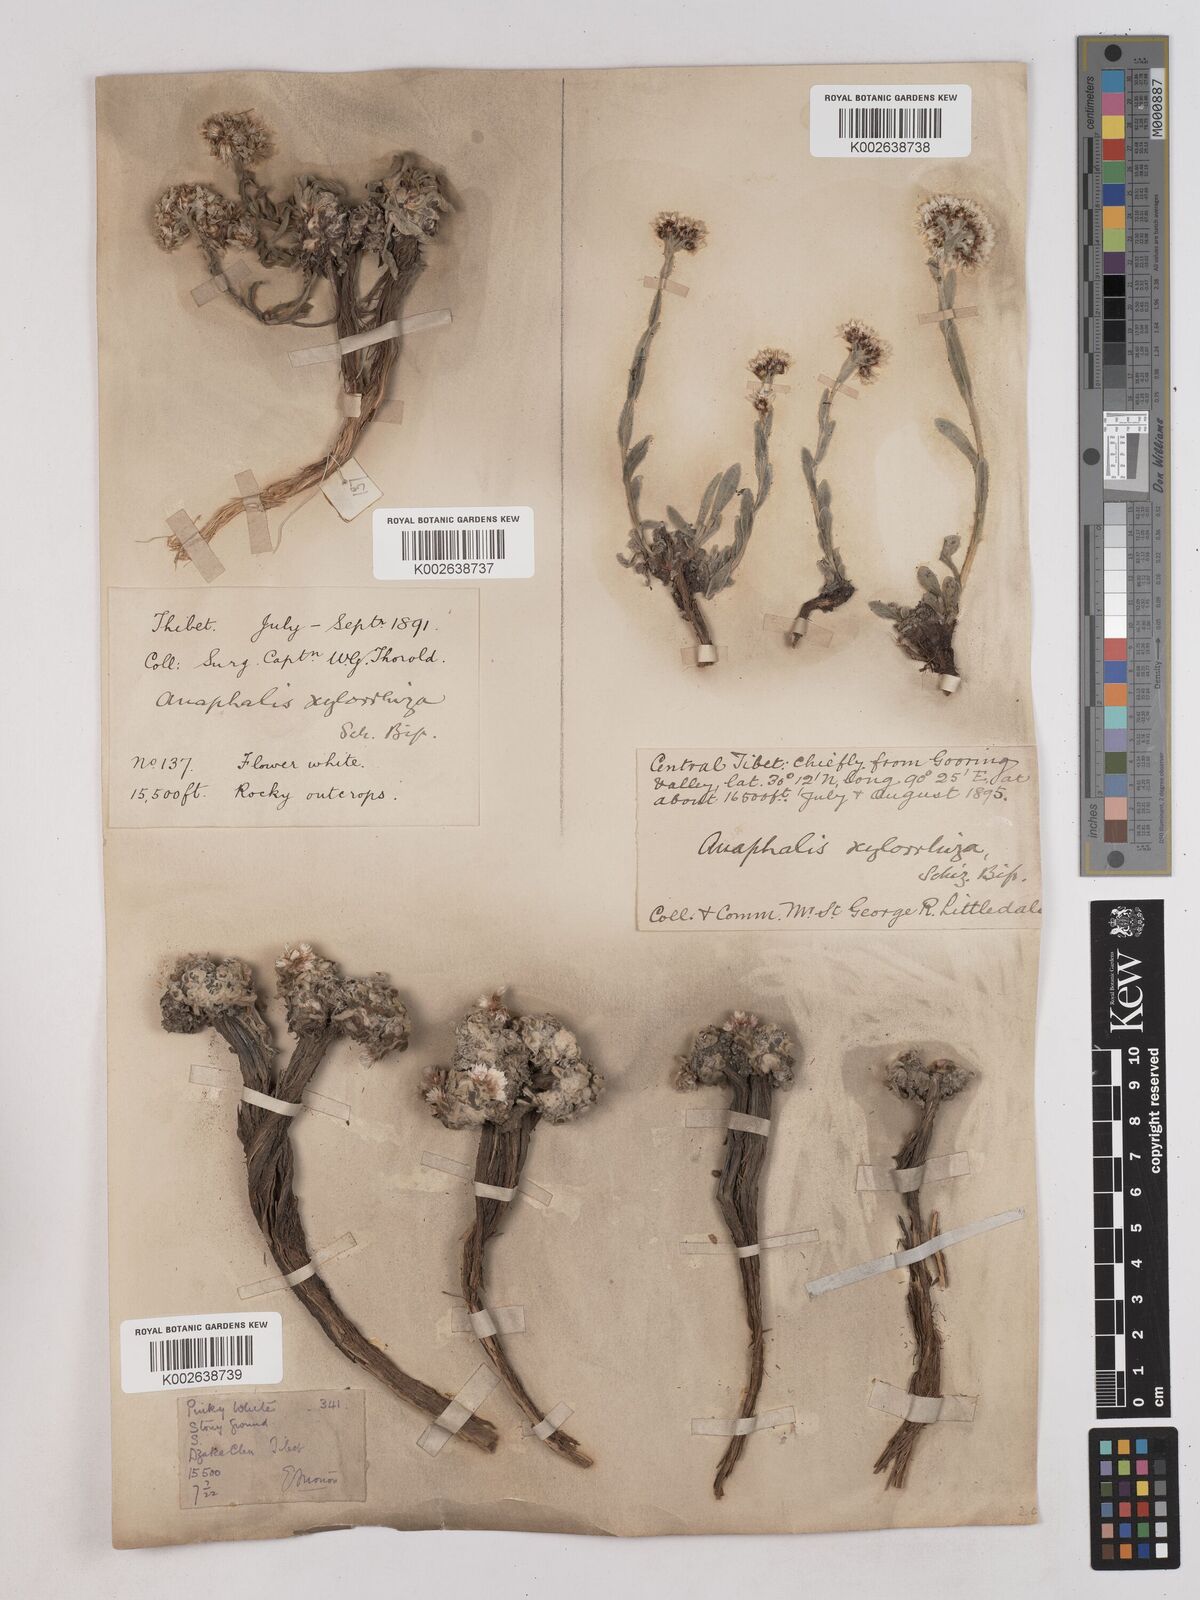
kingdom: Plantae
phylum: Tracheophyta
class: Magnoliopsida
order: Asterales
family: Asteraceae
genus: Anaphalis
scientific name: Anaphalis xylorhiza
